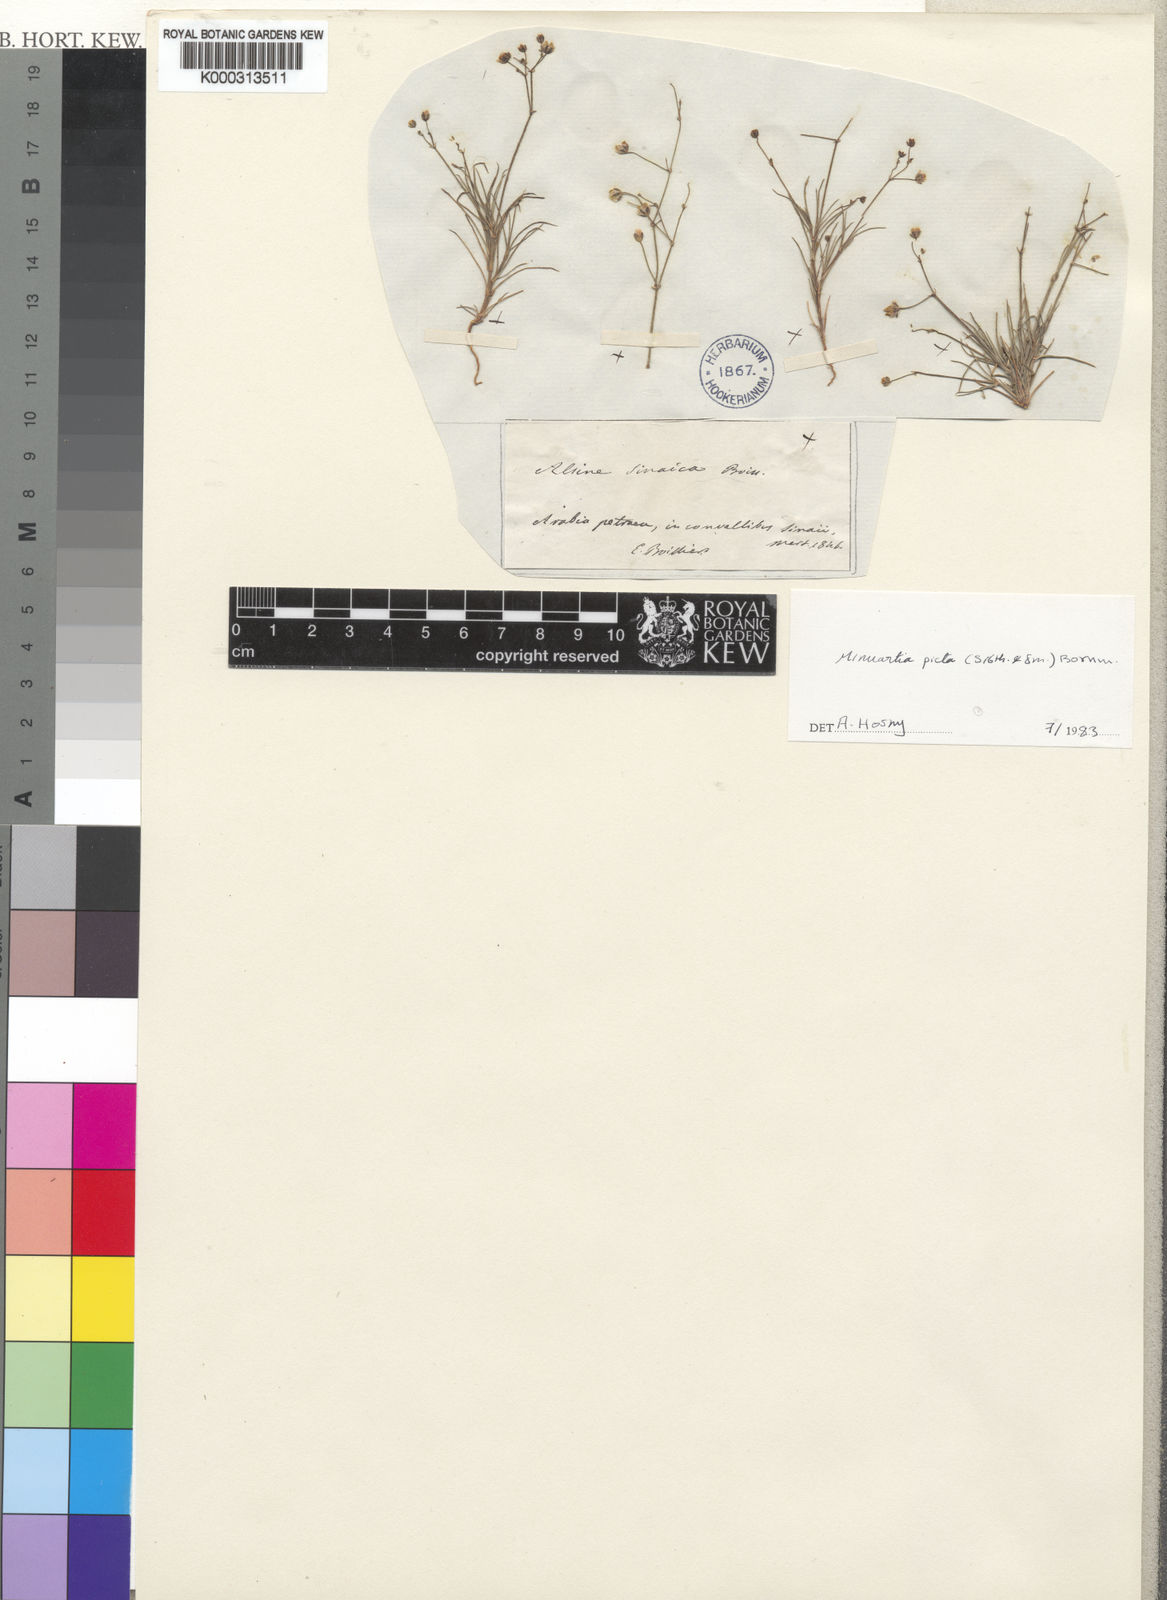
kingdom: Plantae
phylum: Tracheophyta
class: Magnoliopsida
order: Caryophyllales
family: Caryophyllaceae
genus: Eremogone
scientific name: Eremogone picta
